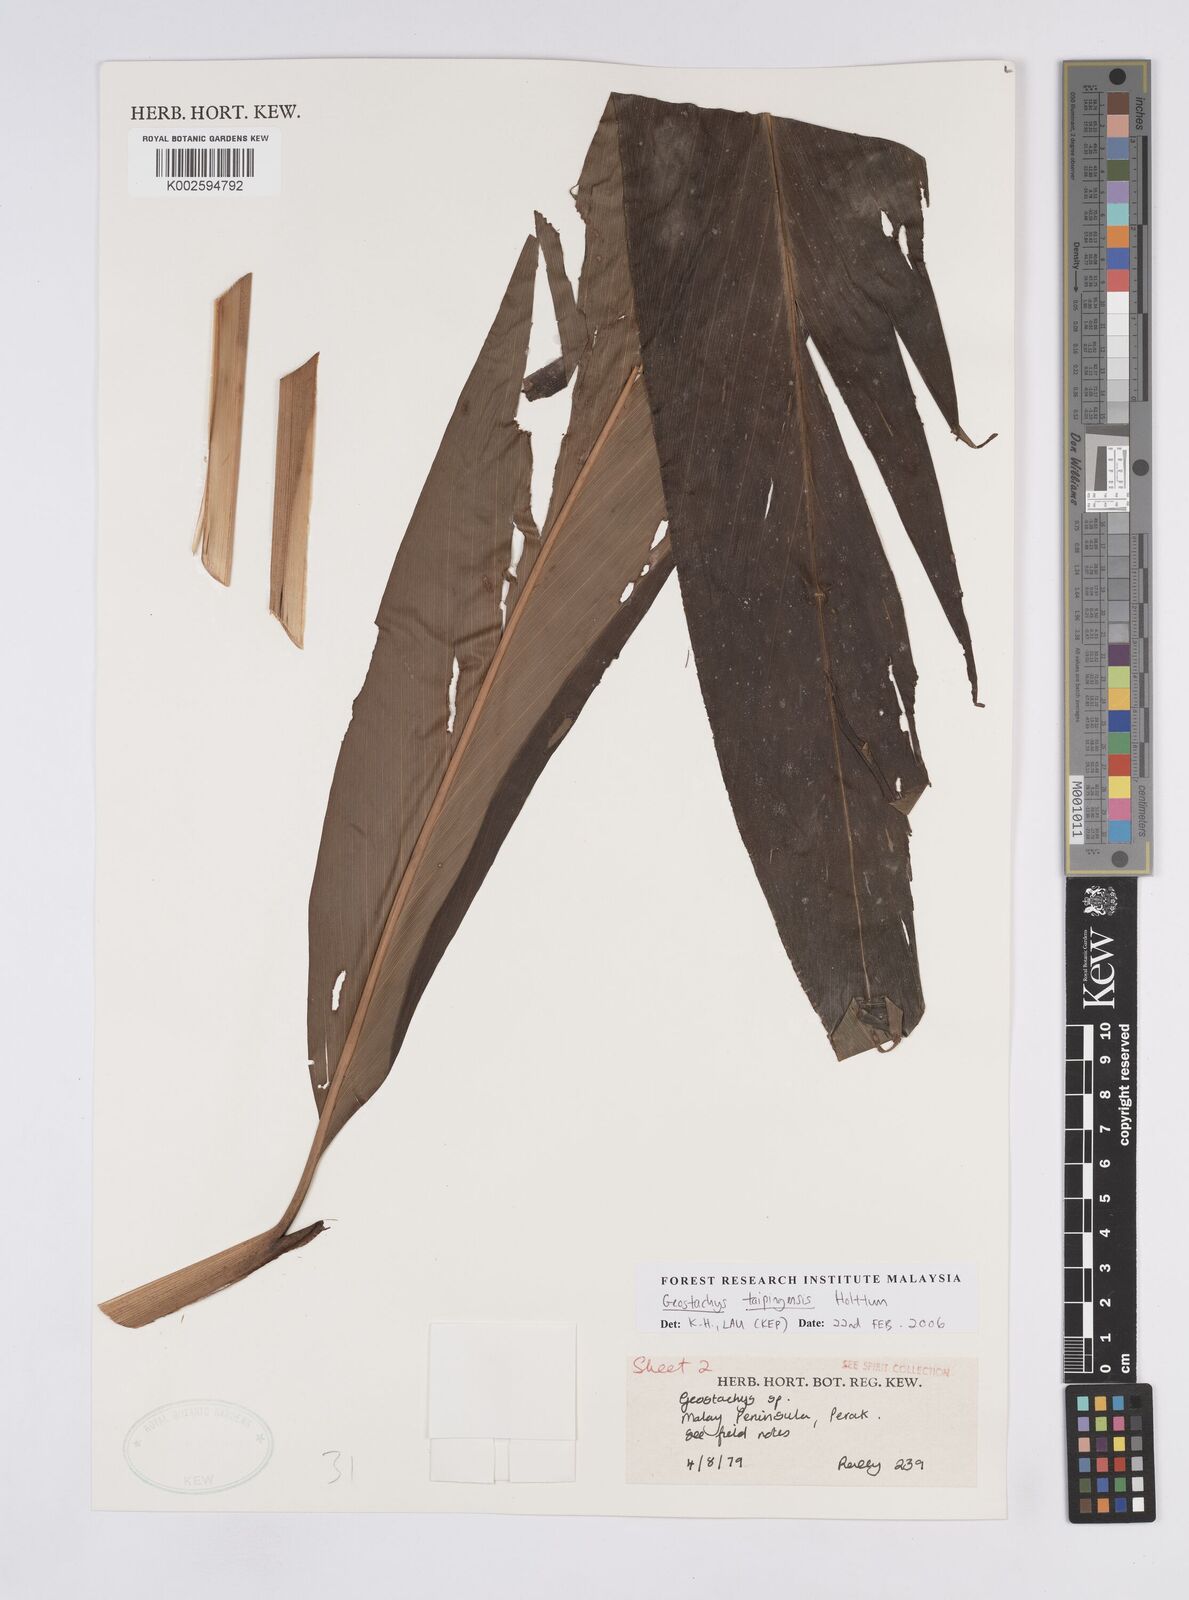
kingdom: Plantae
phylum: Tracheophyta
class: Liliopsida
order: Zingiberales
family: Zingiberaceae
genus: Geostachys
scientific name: Geostachys taipingensis
